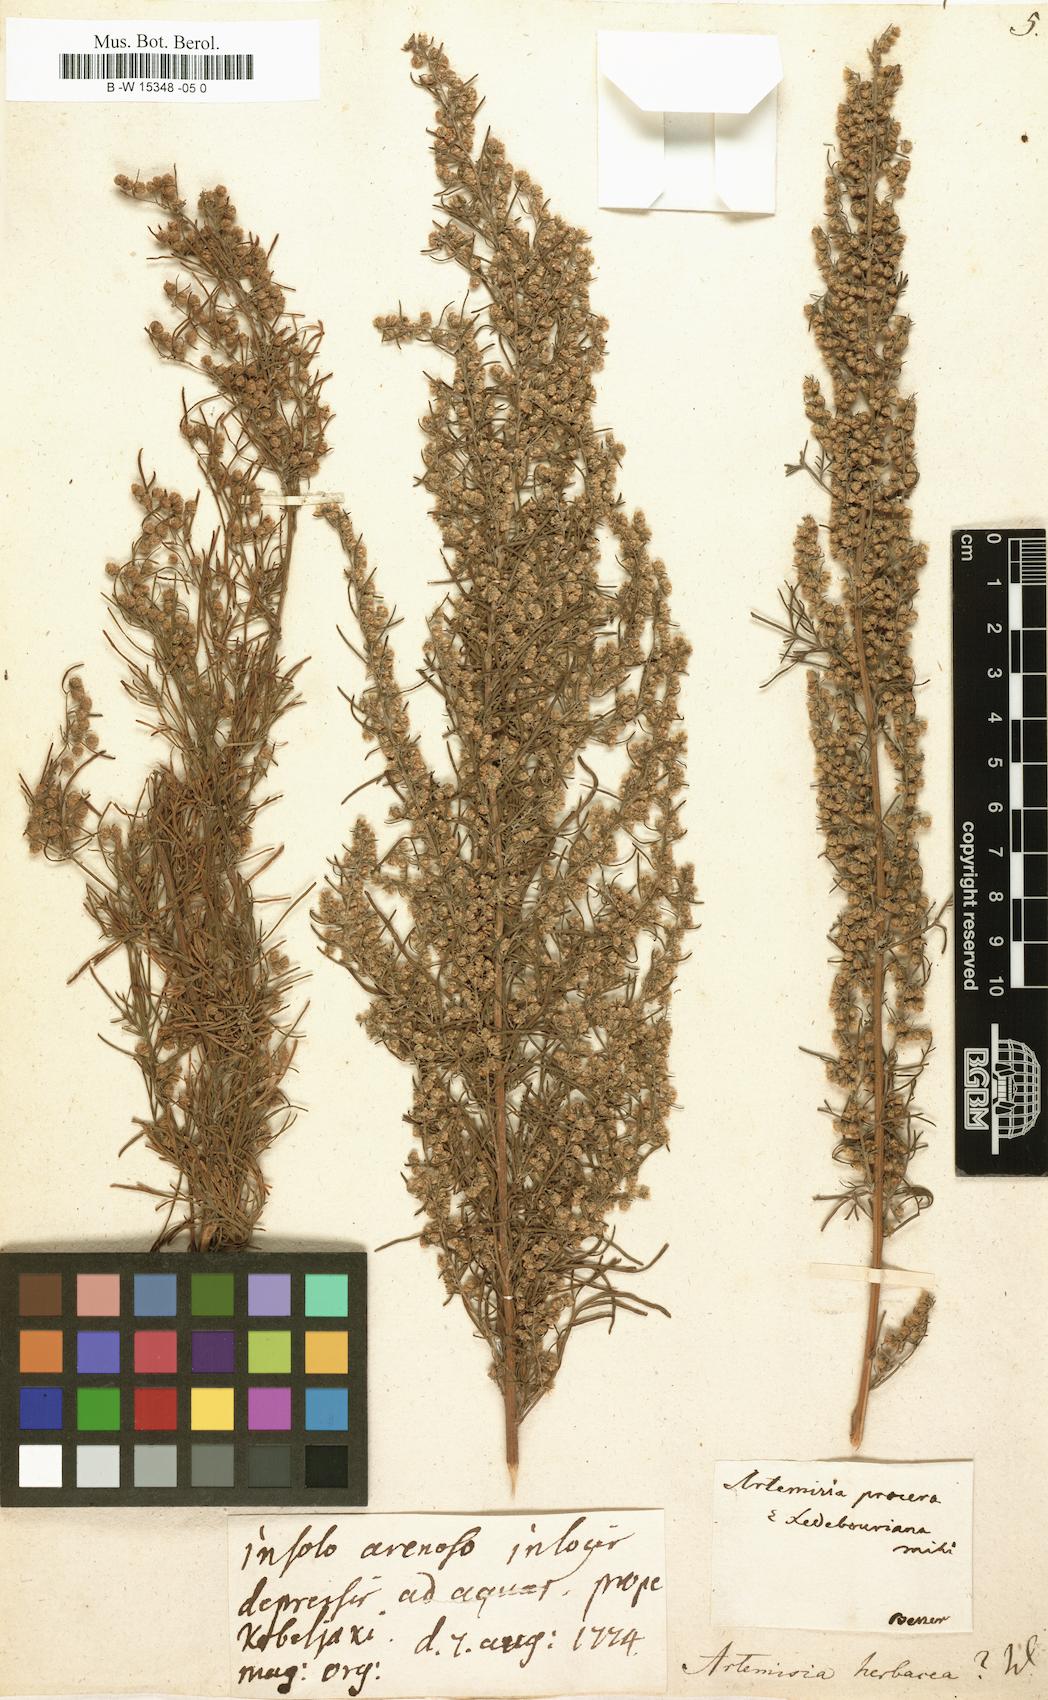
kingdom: Plantae
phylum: Tracheophyta
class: Magnoliopsida
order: Asterales
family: Asteraceae
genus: Artemisia
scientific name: Artemisia abrotanum
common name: Southernwood
